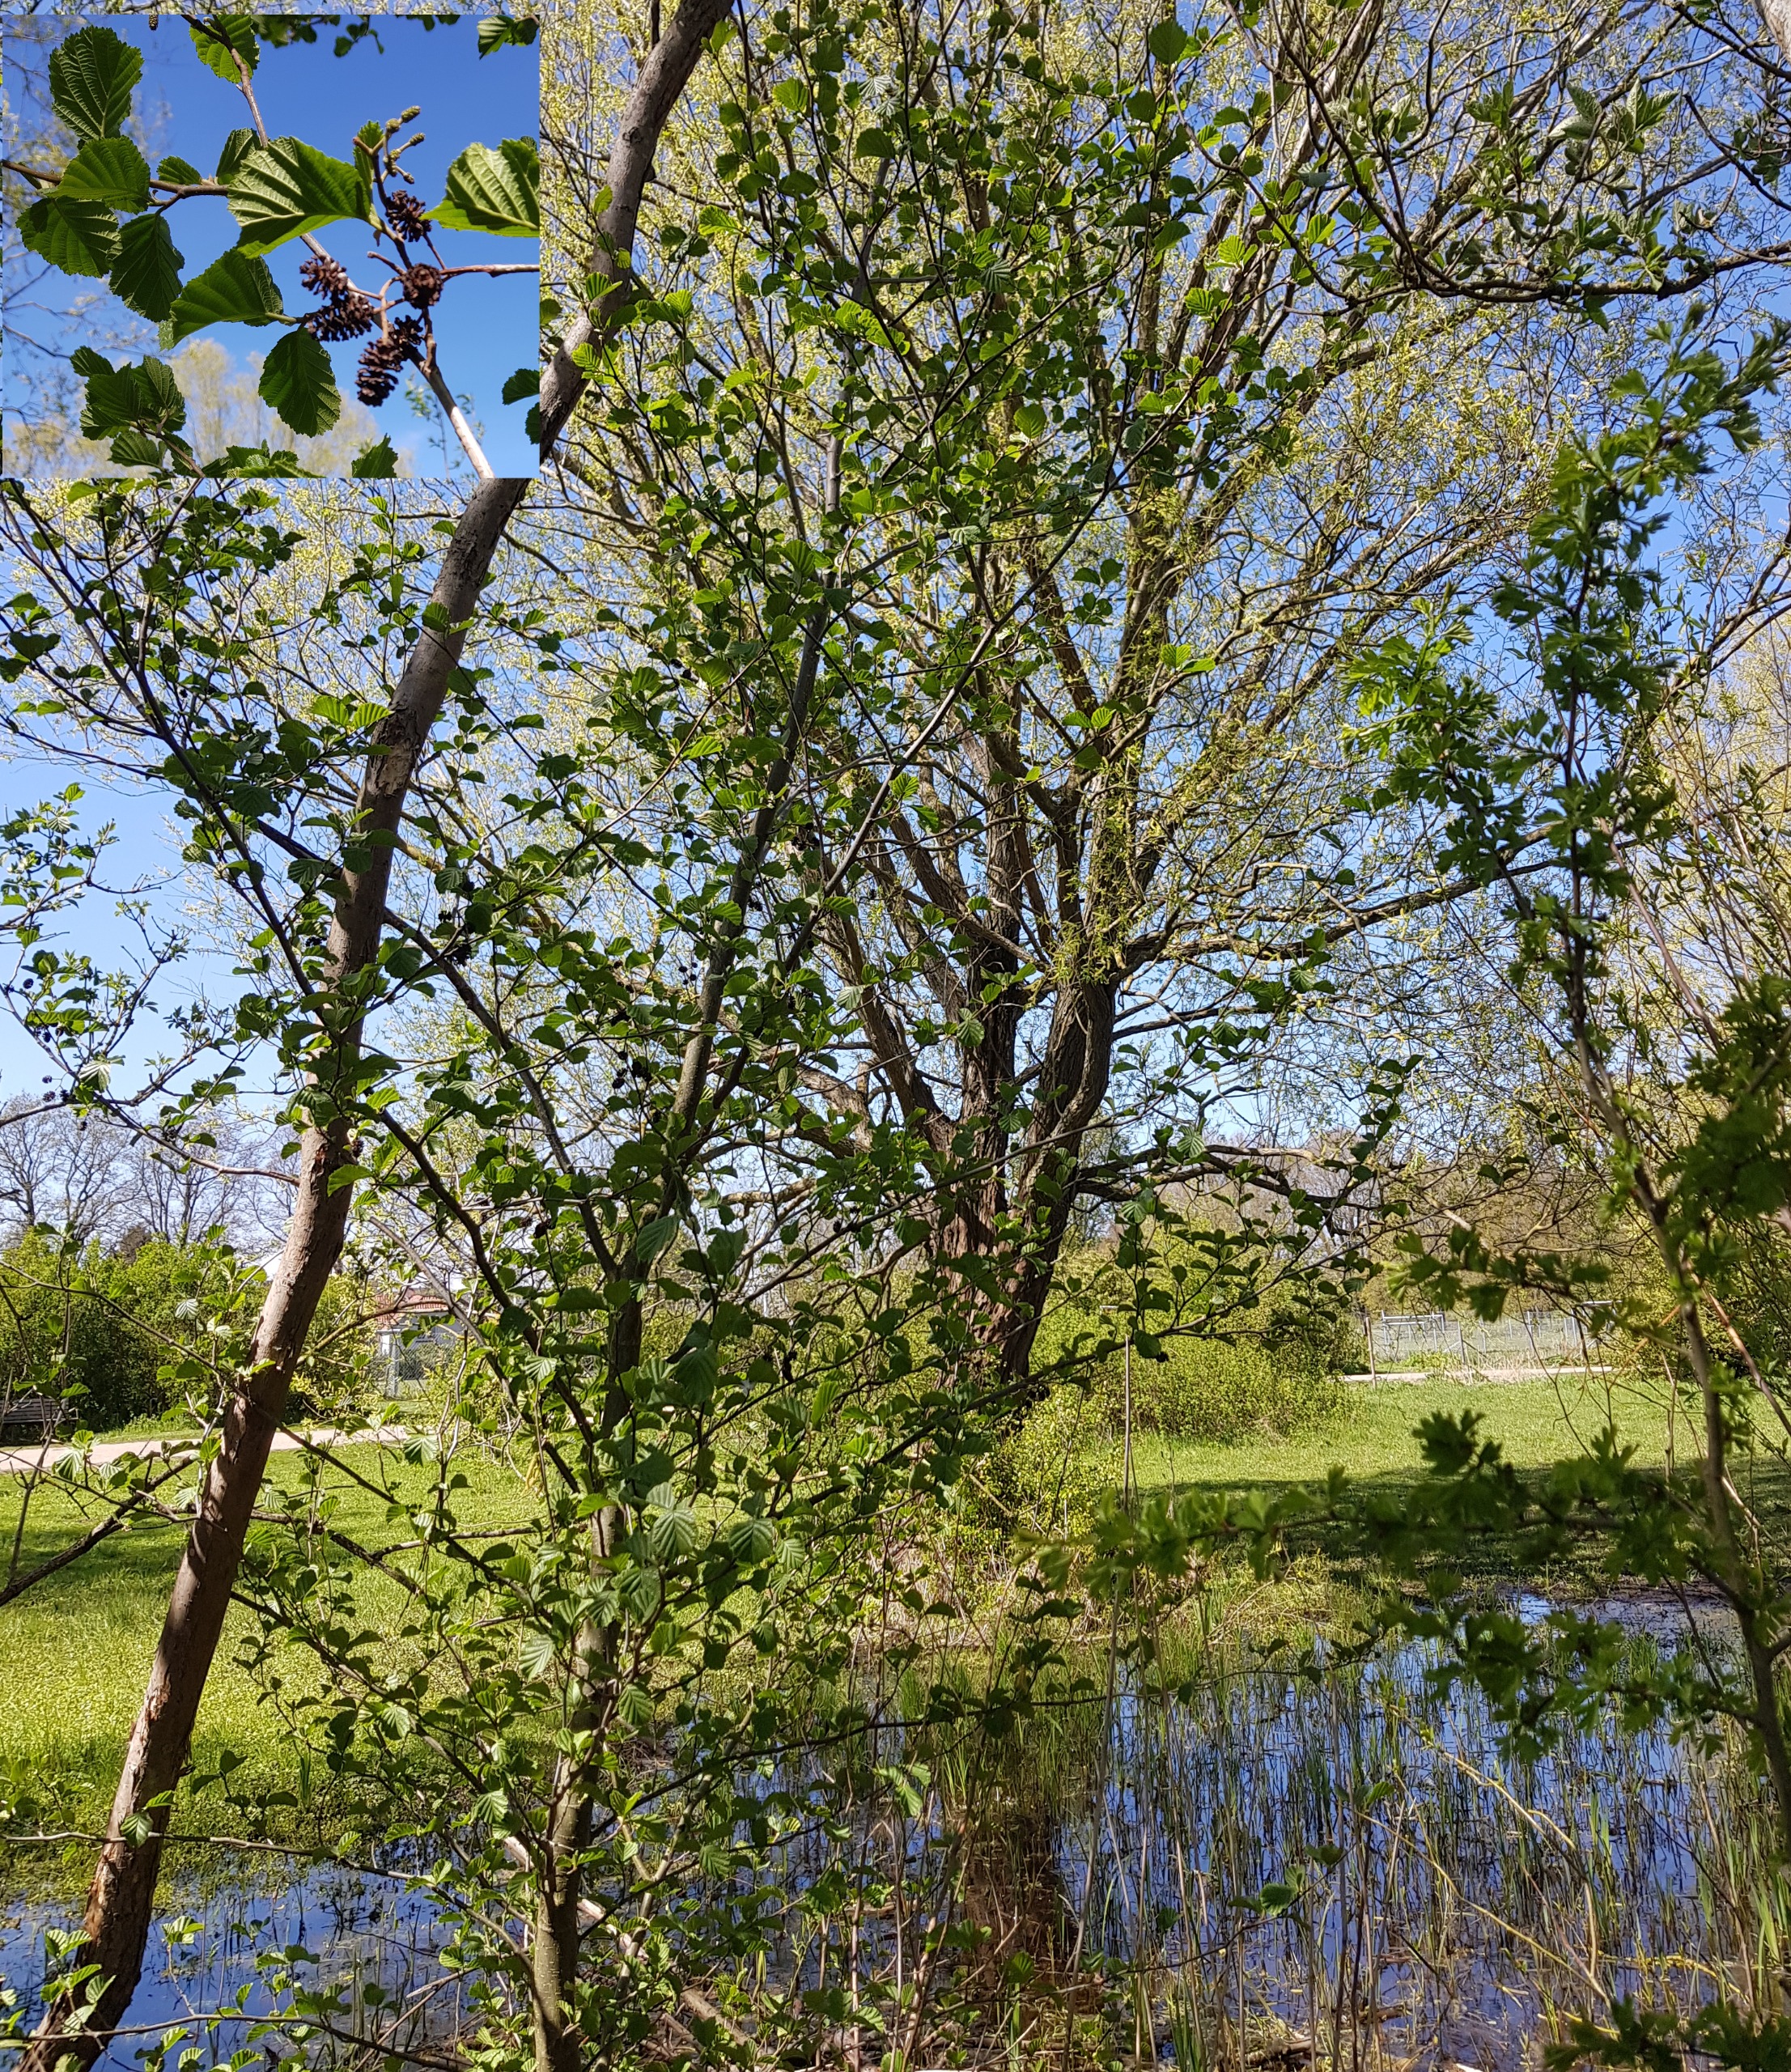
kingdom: Plantae
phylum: Tracheophyta
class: Magnoliopsida
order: Fagales
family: Betulaceae
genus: Alnus
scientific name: Alnus glutinosa
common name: Rød-el
